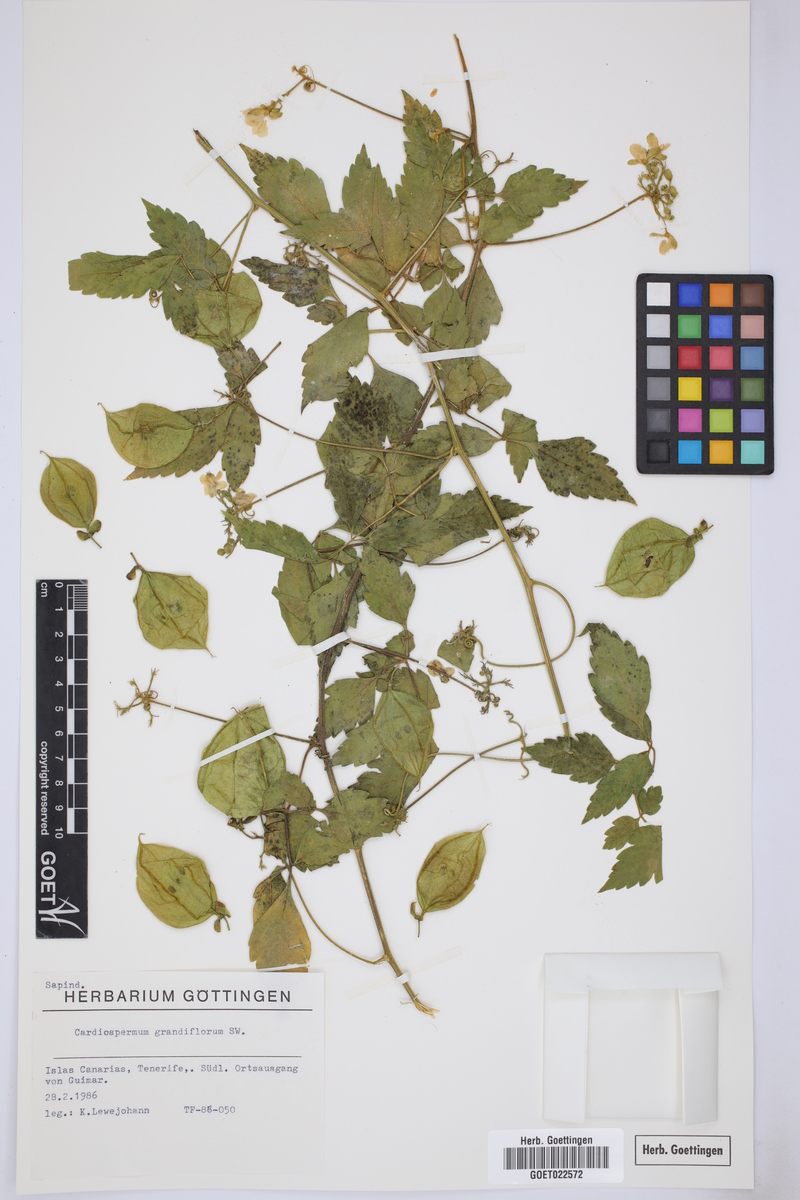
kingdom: Plantae
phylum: Tracheophyta
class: Magnoliopsida
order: Sapindales
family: Sapindaceae
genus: Cardiospermum
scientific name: Cardiospermum grandiflorum
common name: Balloon vine
